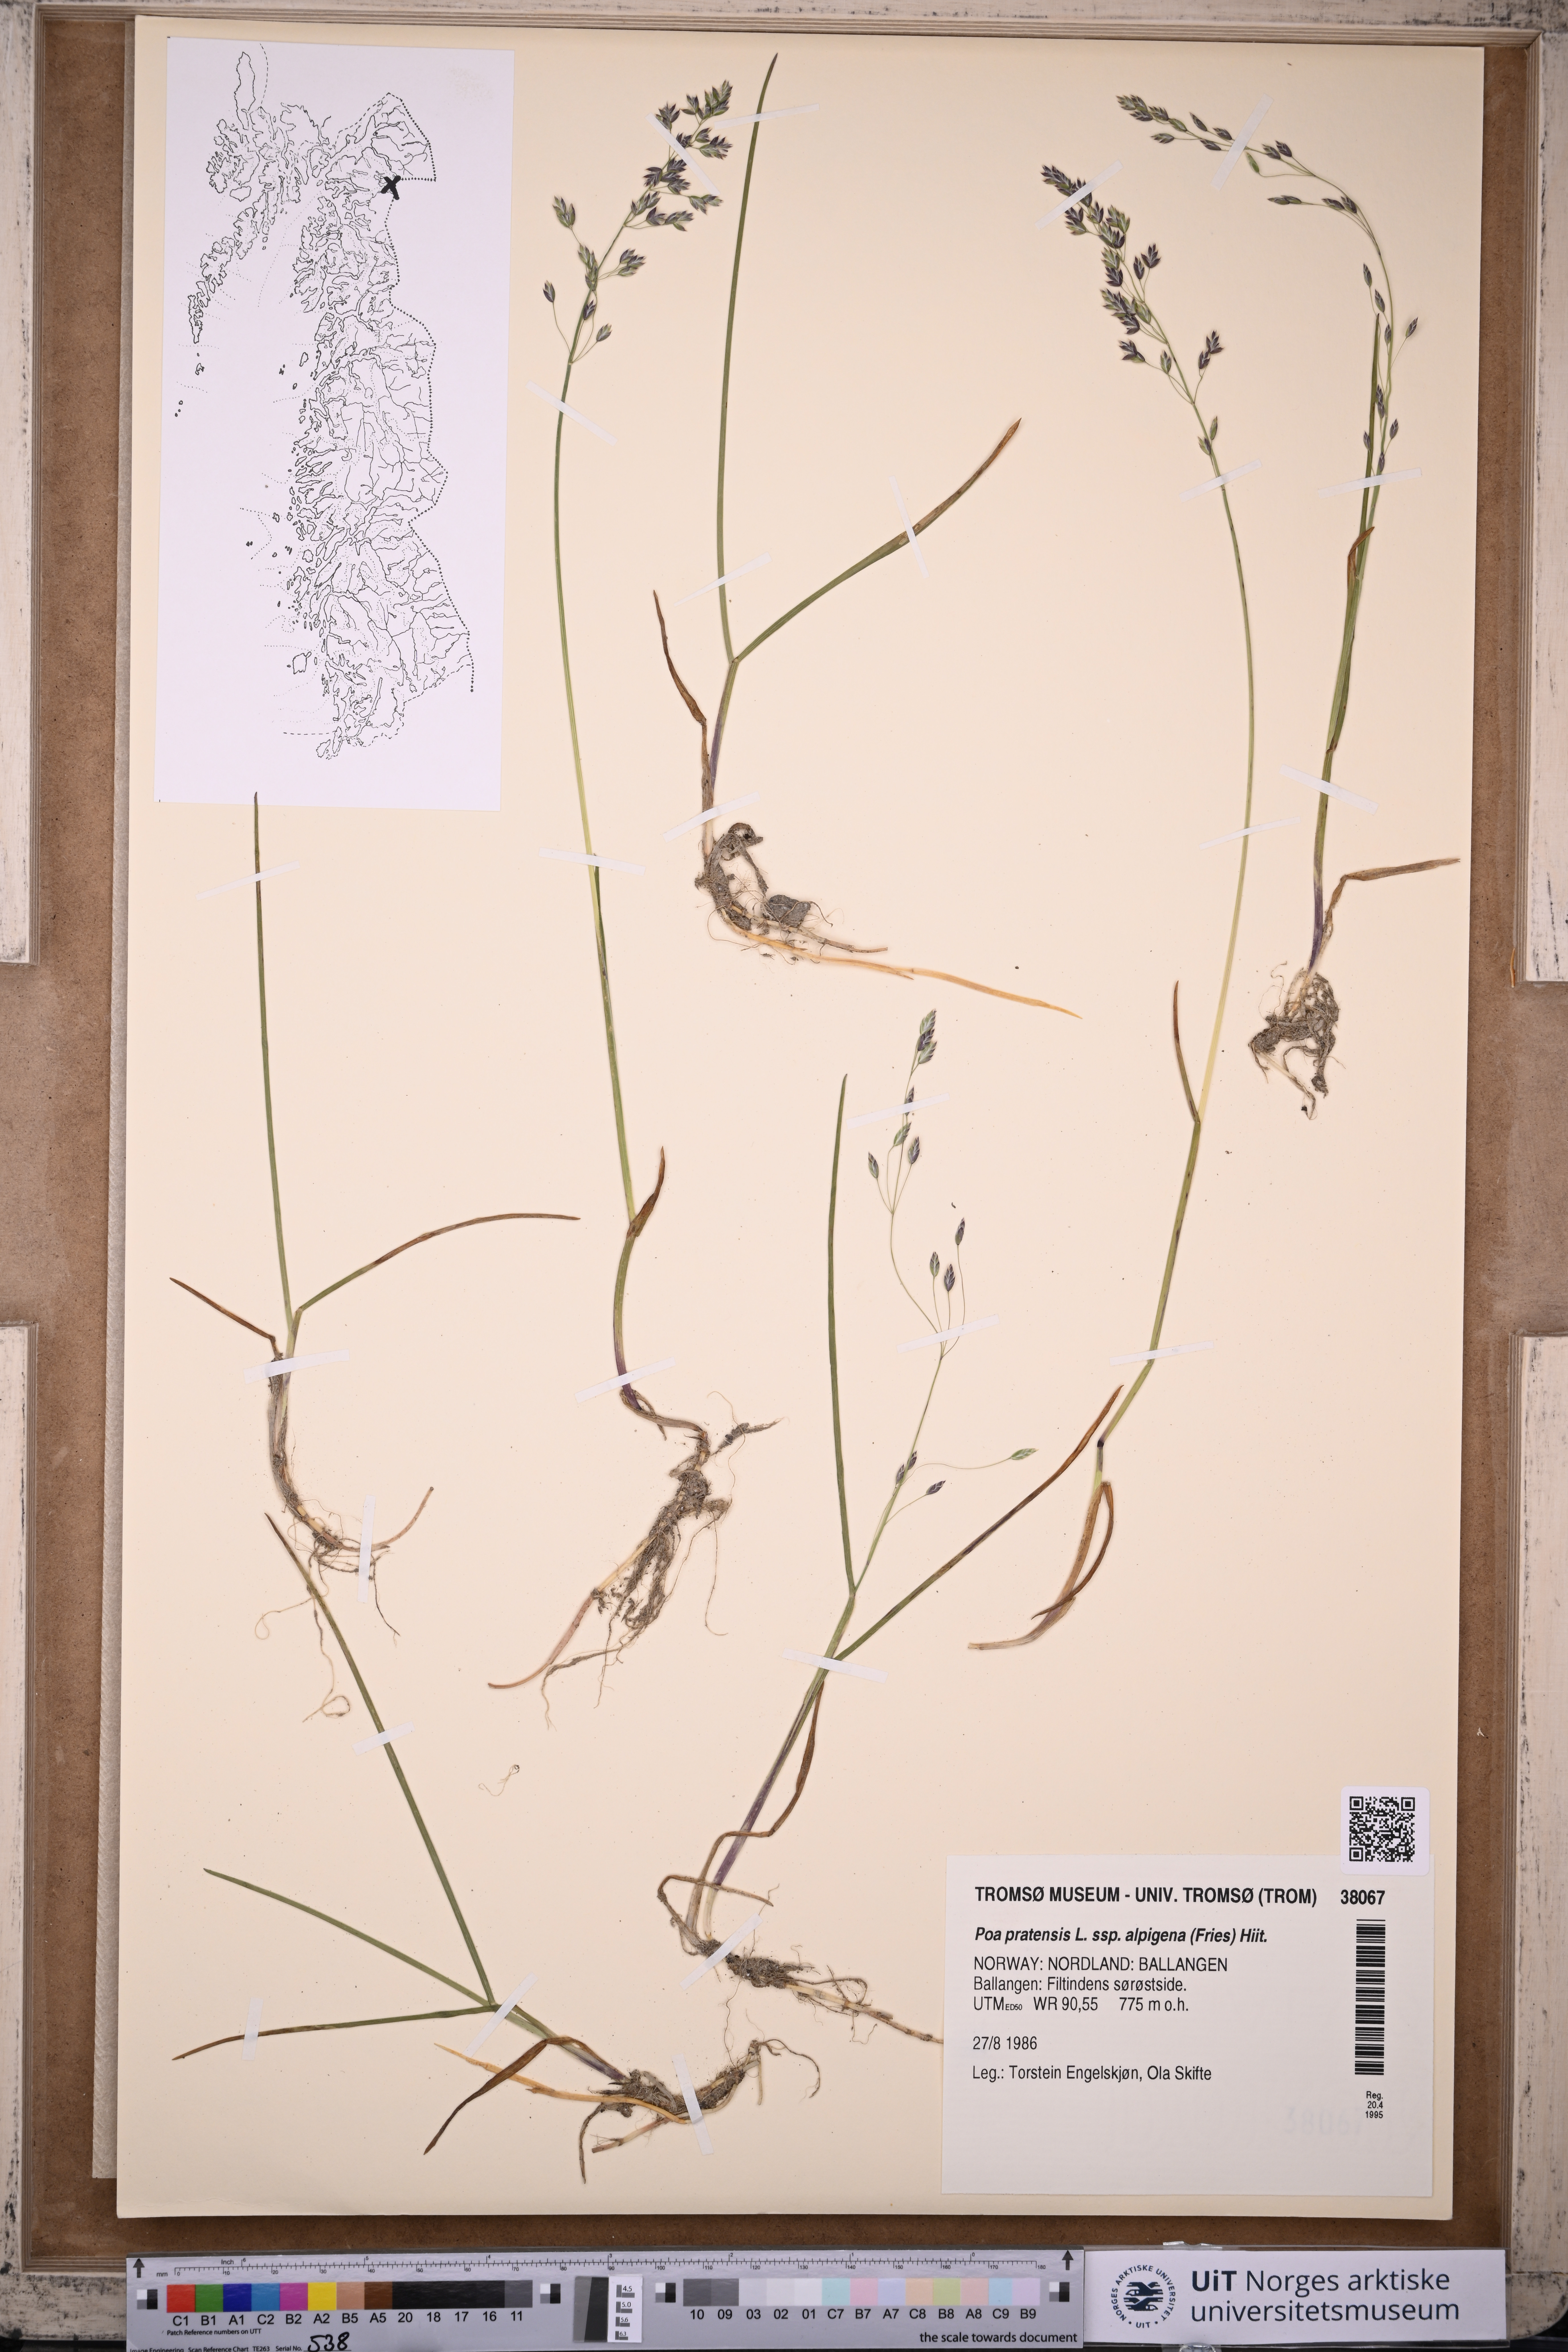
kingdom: Plantae
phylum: Tracheophyta
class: Liliopsida
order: Poales
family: Poaceae
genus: Poa
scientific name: Poa alpigena
